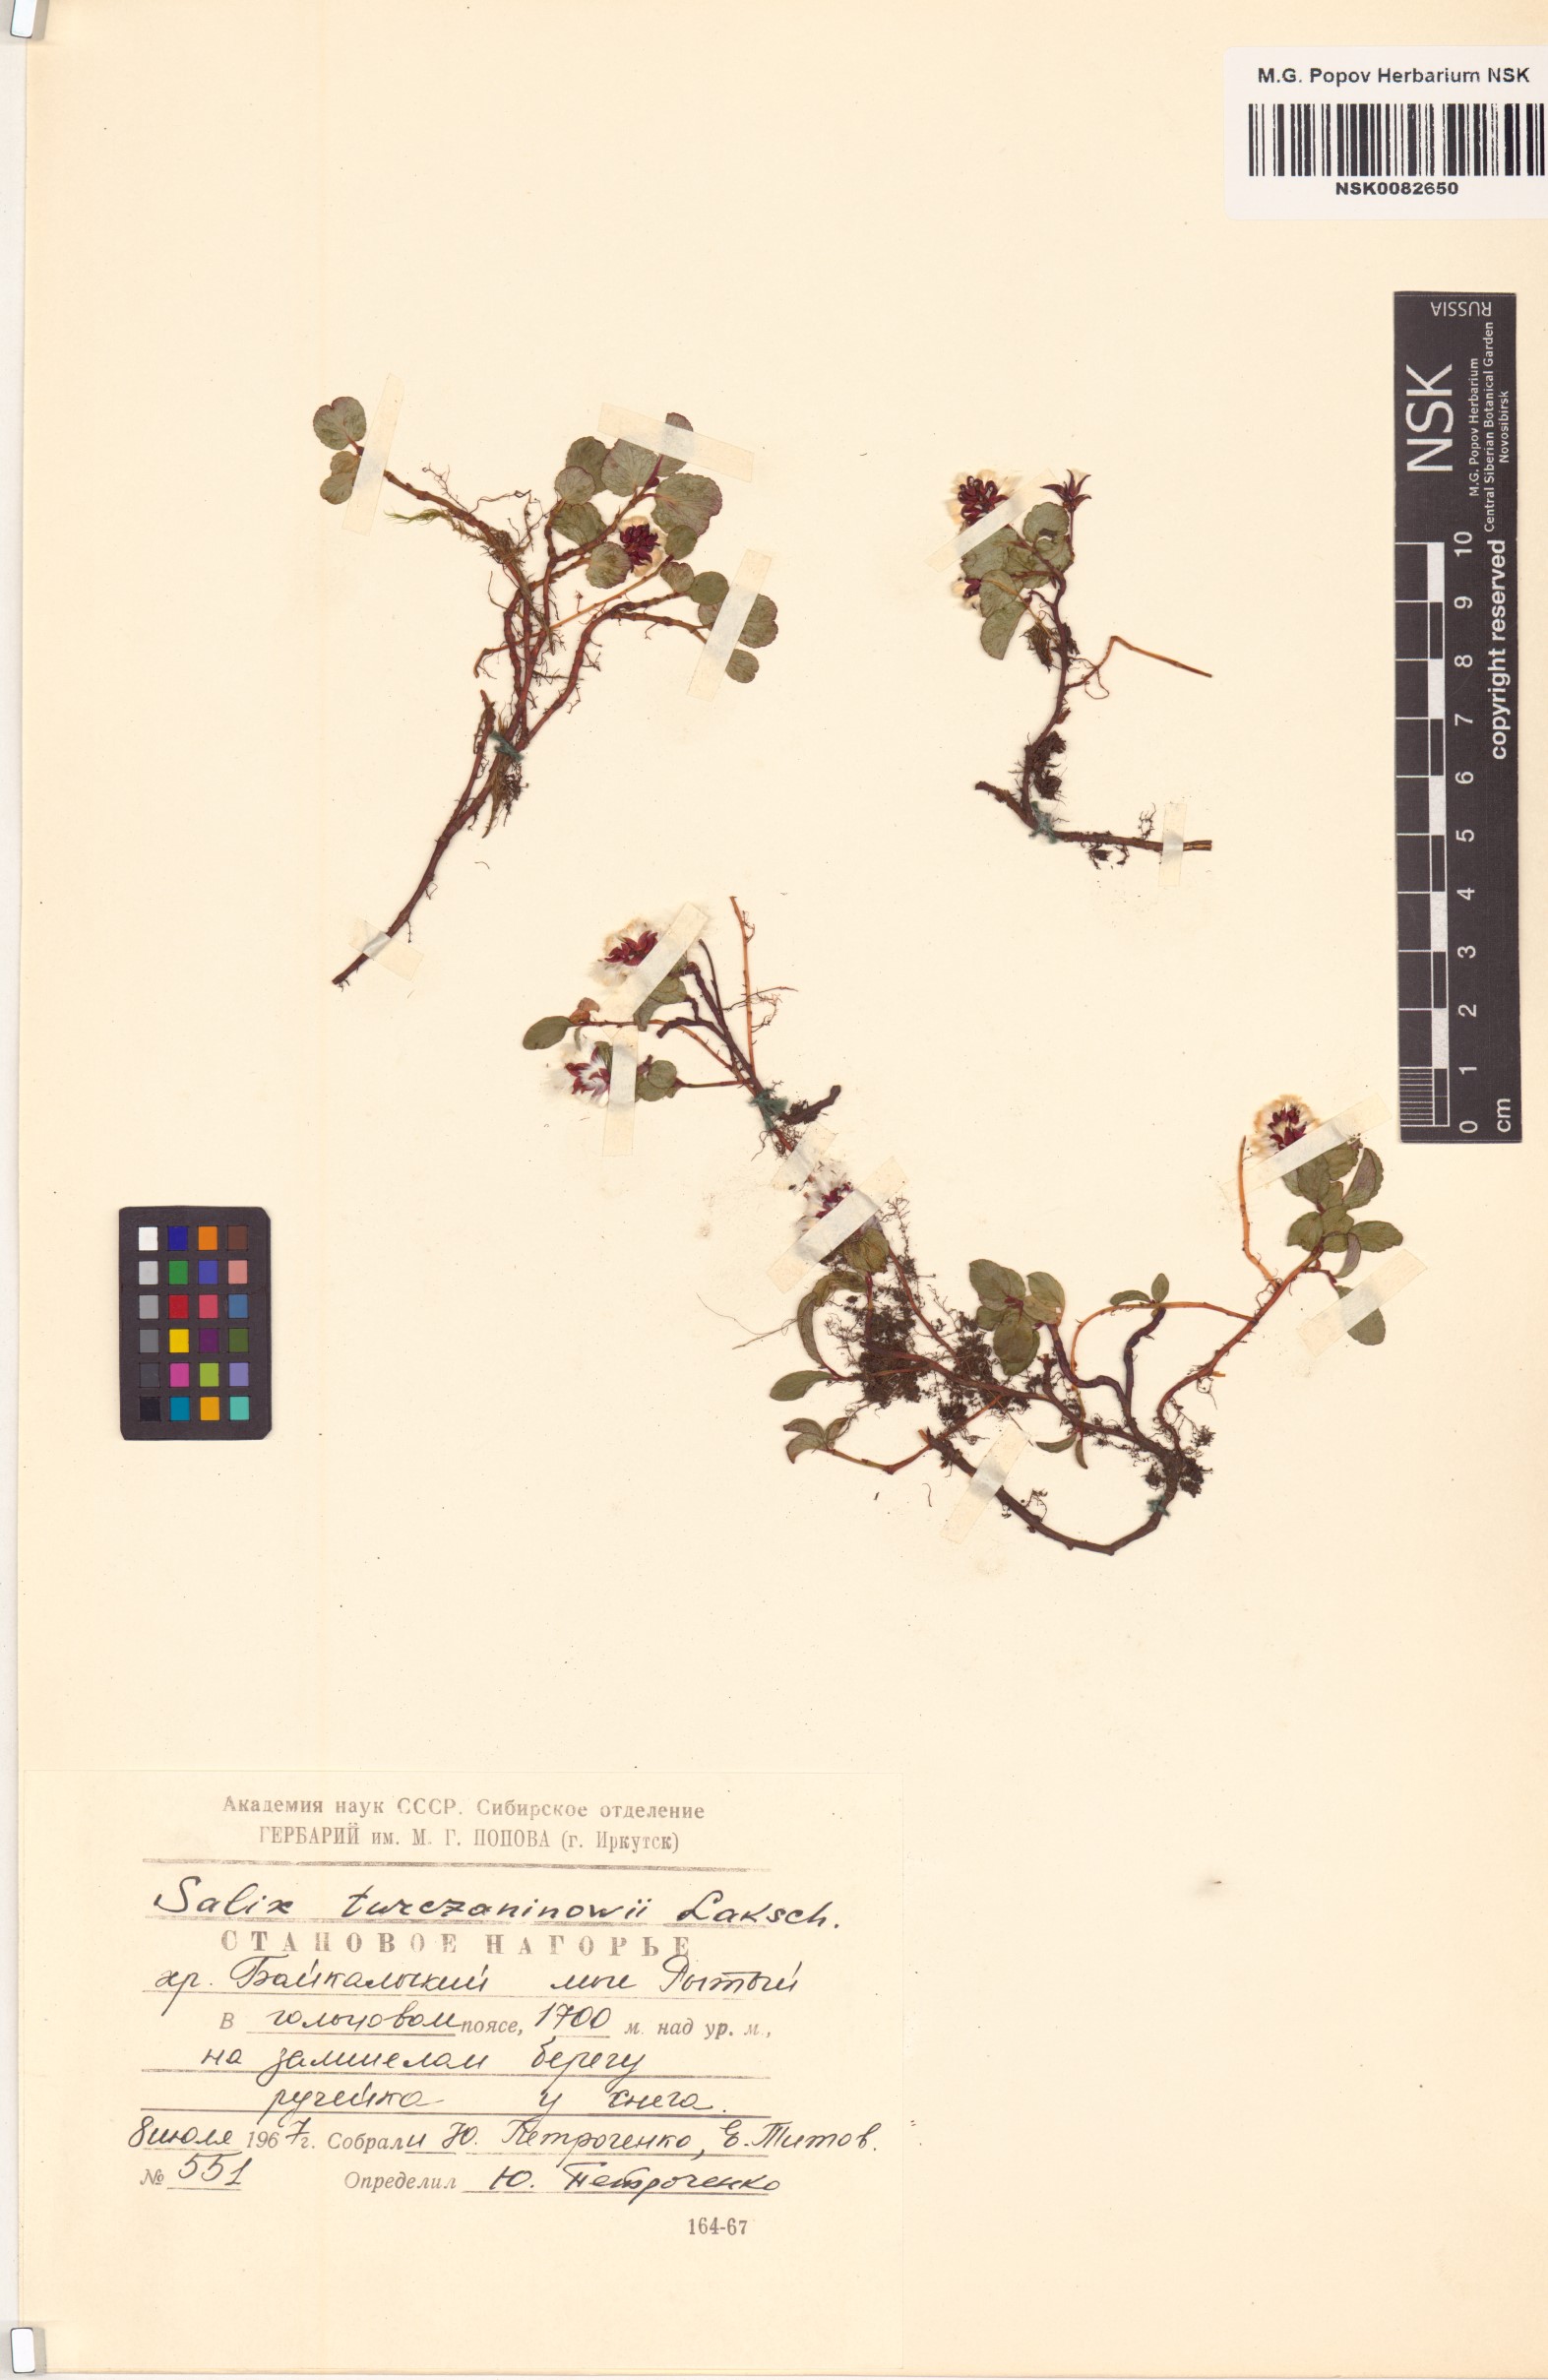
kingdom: Plantae
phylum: Tracheophyta
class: Magnoliopsida
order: Malpighiales
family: Salicaceae
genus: Salix
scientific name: Salix turczaninowii
